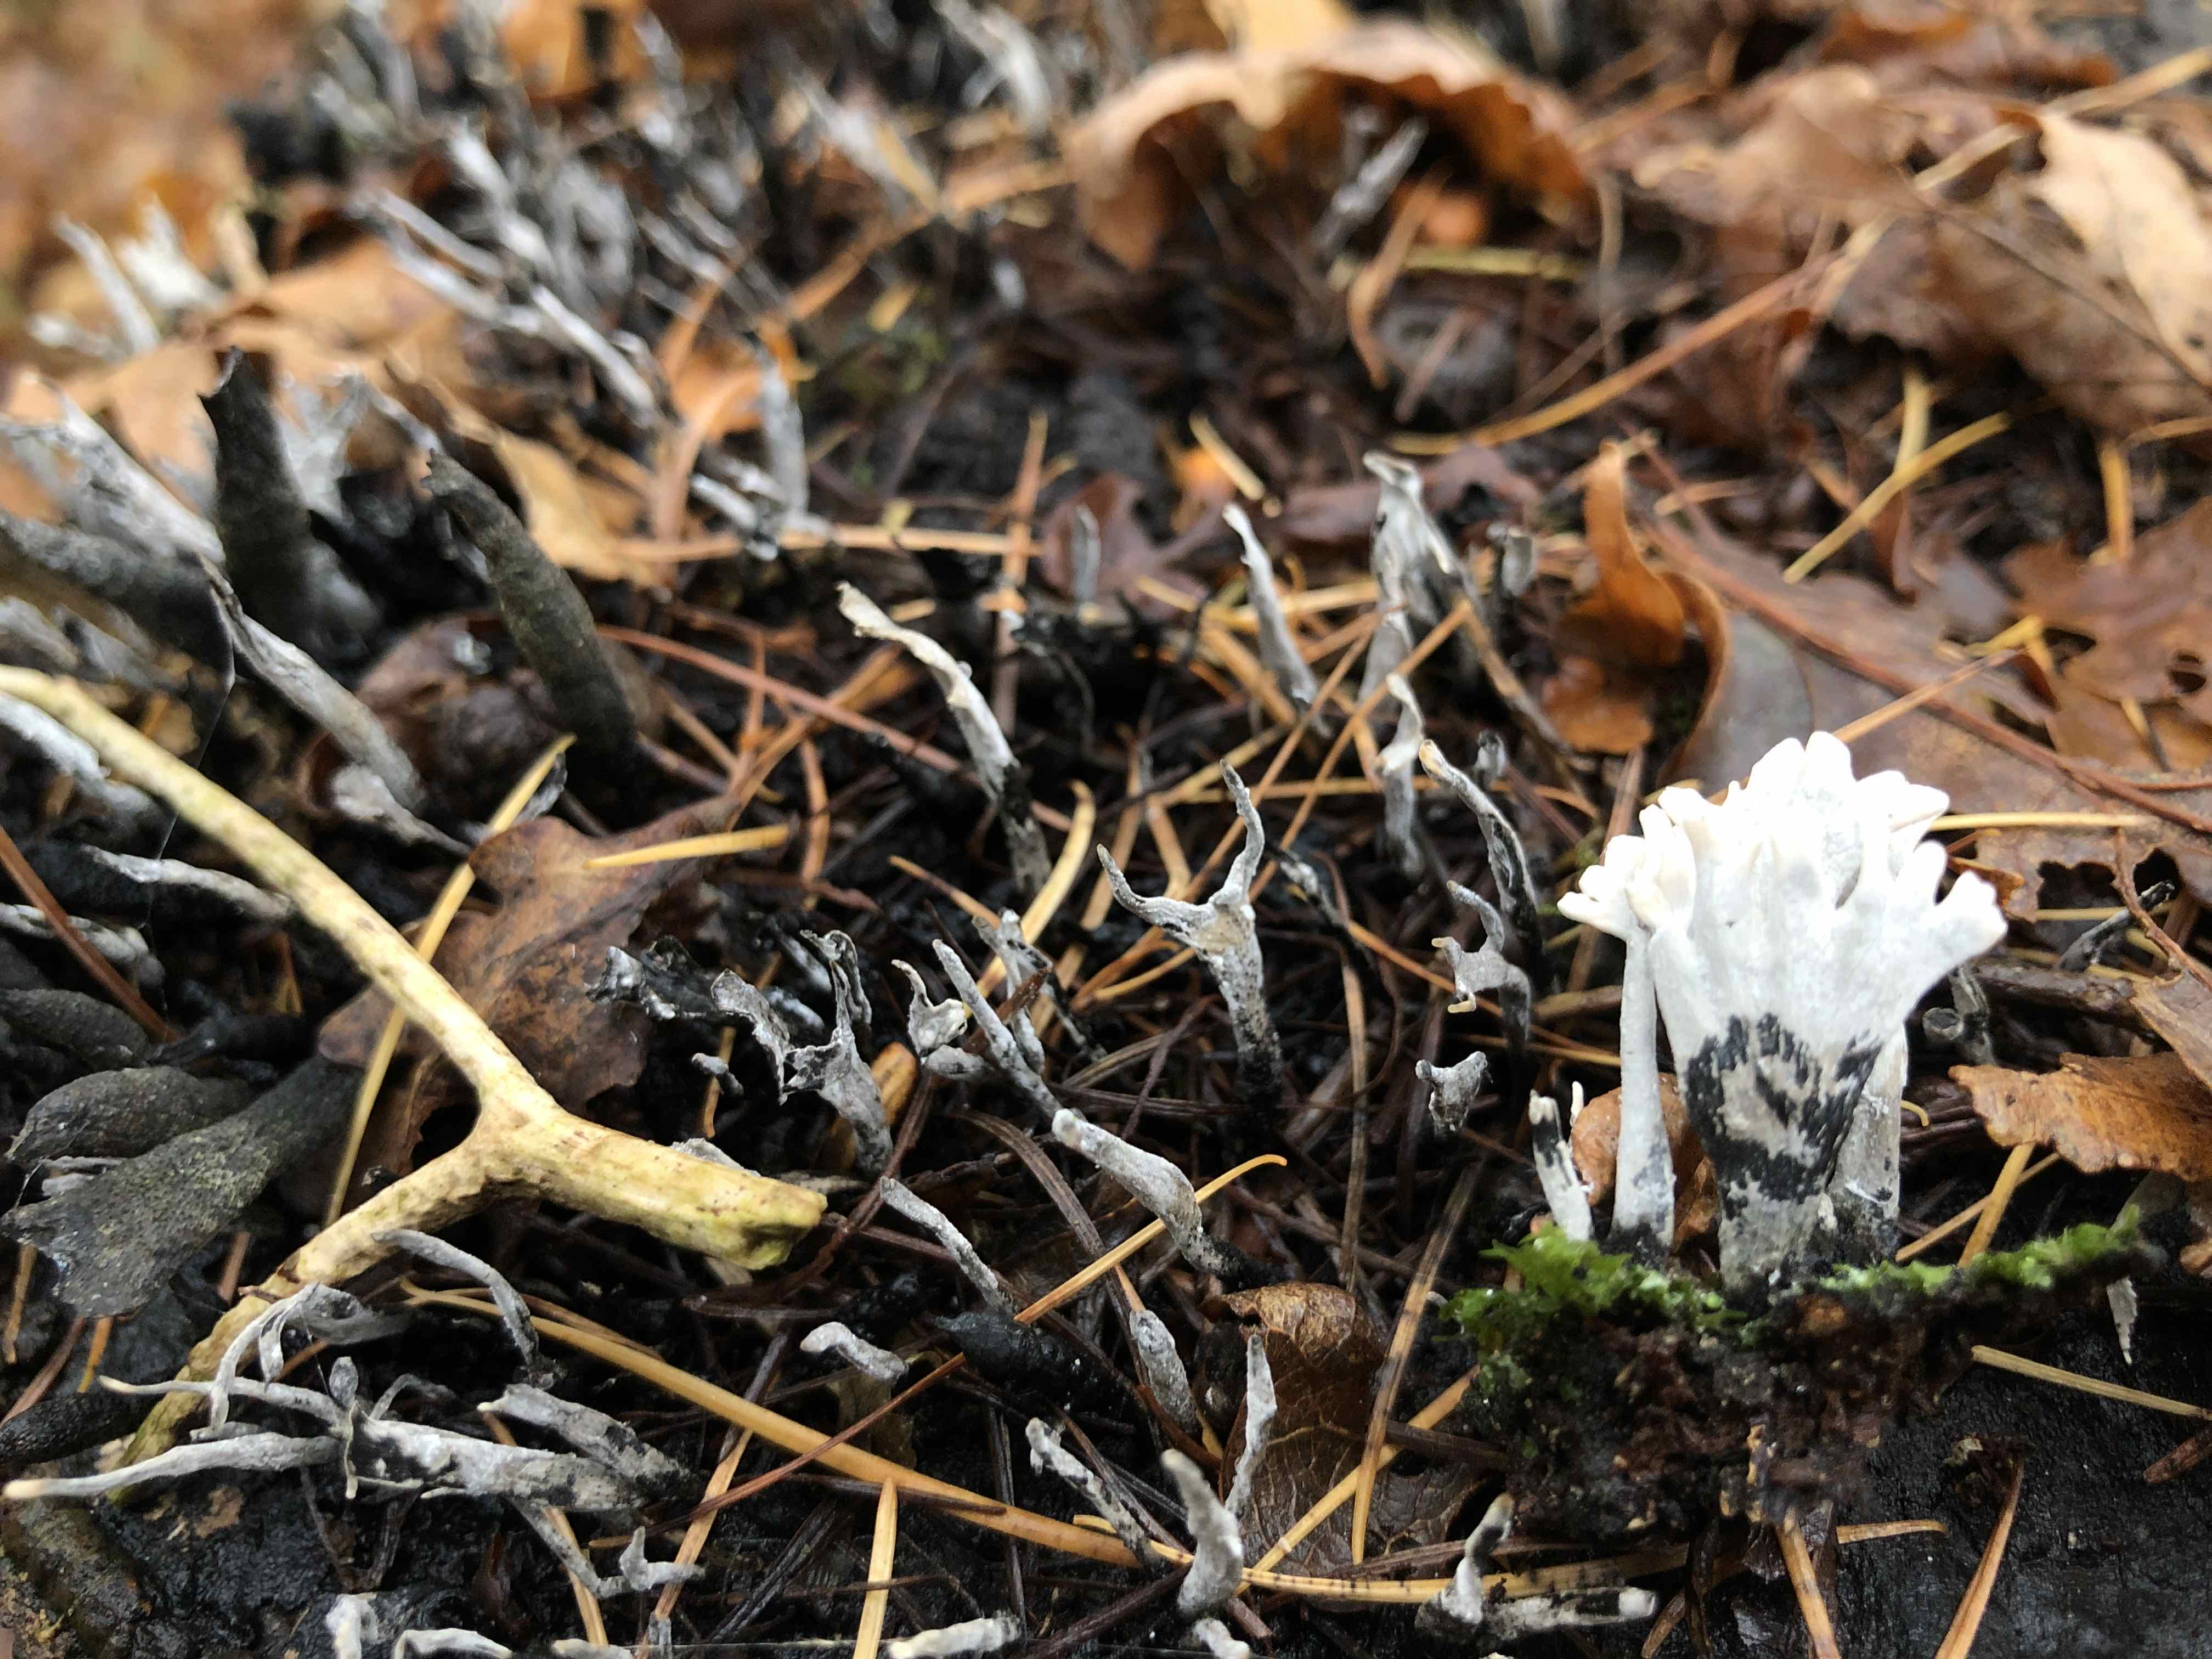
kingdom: Fungi
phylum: Ascomycota
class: Sordariomycetes
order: Xylariales
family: Xylariaceae
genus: Xylaria
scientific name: Xylaria hypoxylon
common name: grenet stødsvamp
